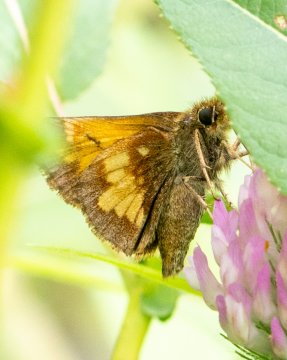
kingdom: Animalia
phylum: Arthropoda
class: Insecta
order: Lepidoptera
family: Hesperiidae
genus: Vernia
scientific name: Vernia verna
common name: Little Glassywing
